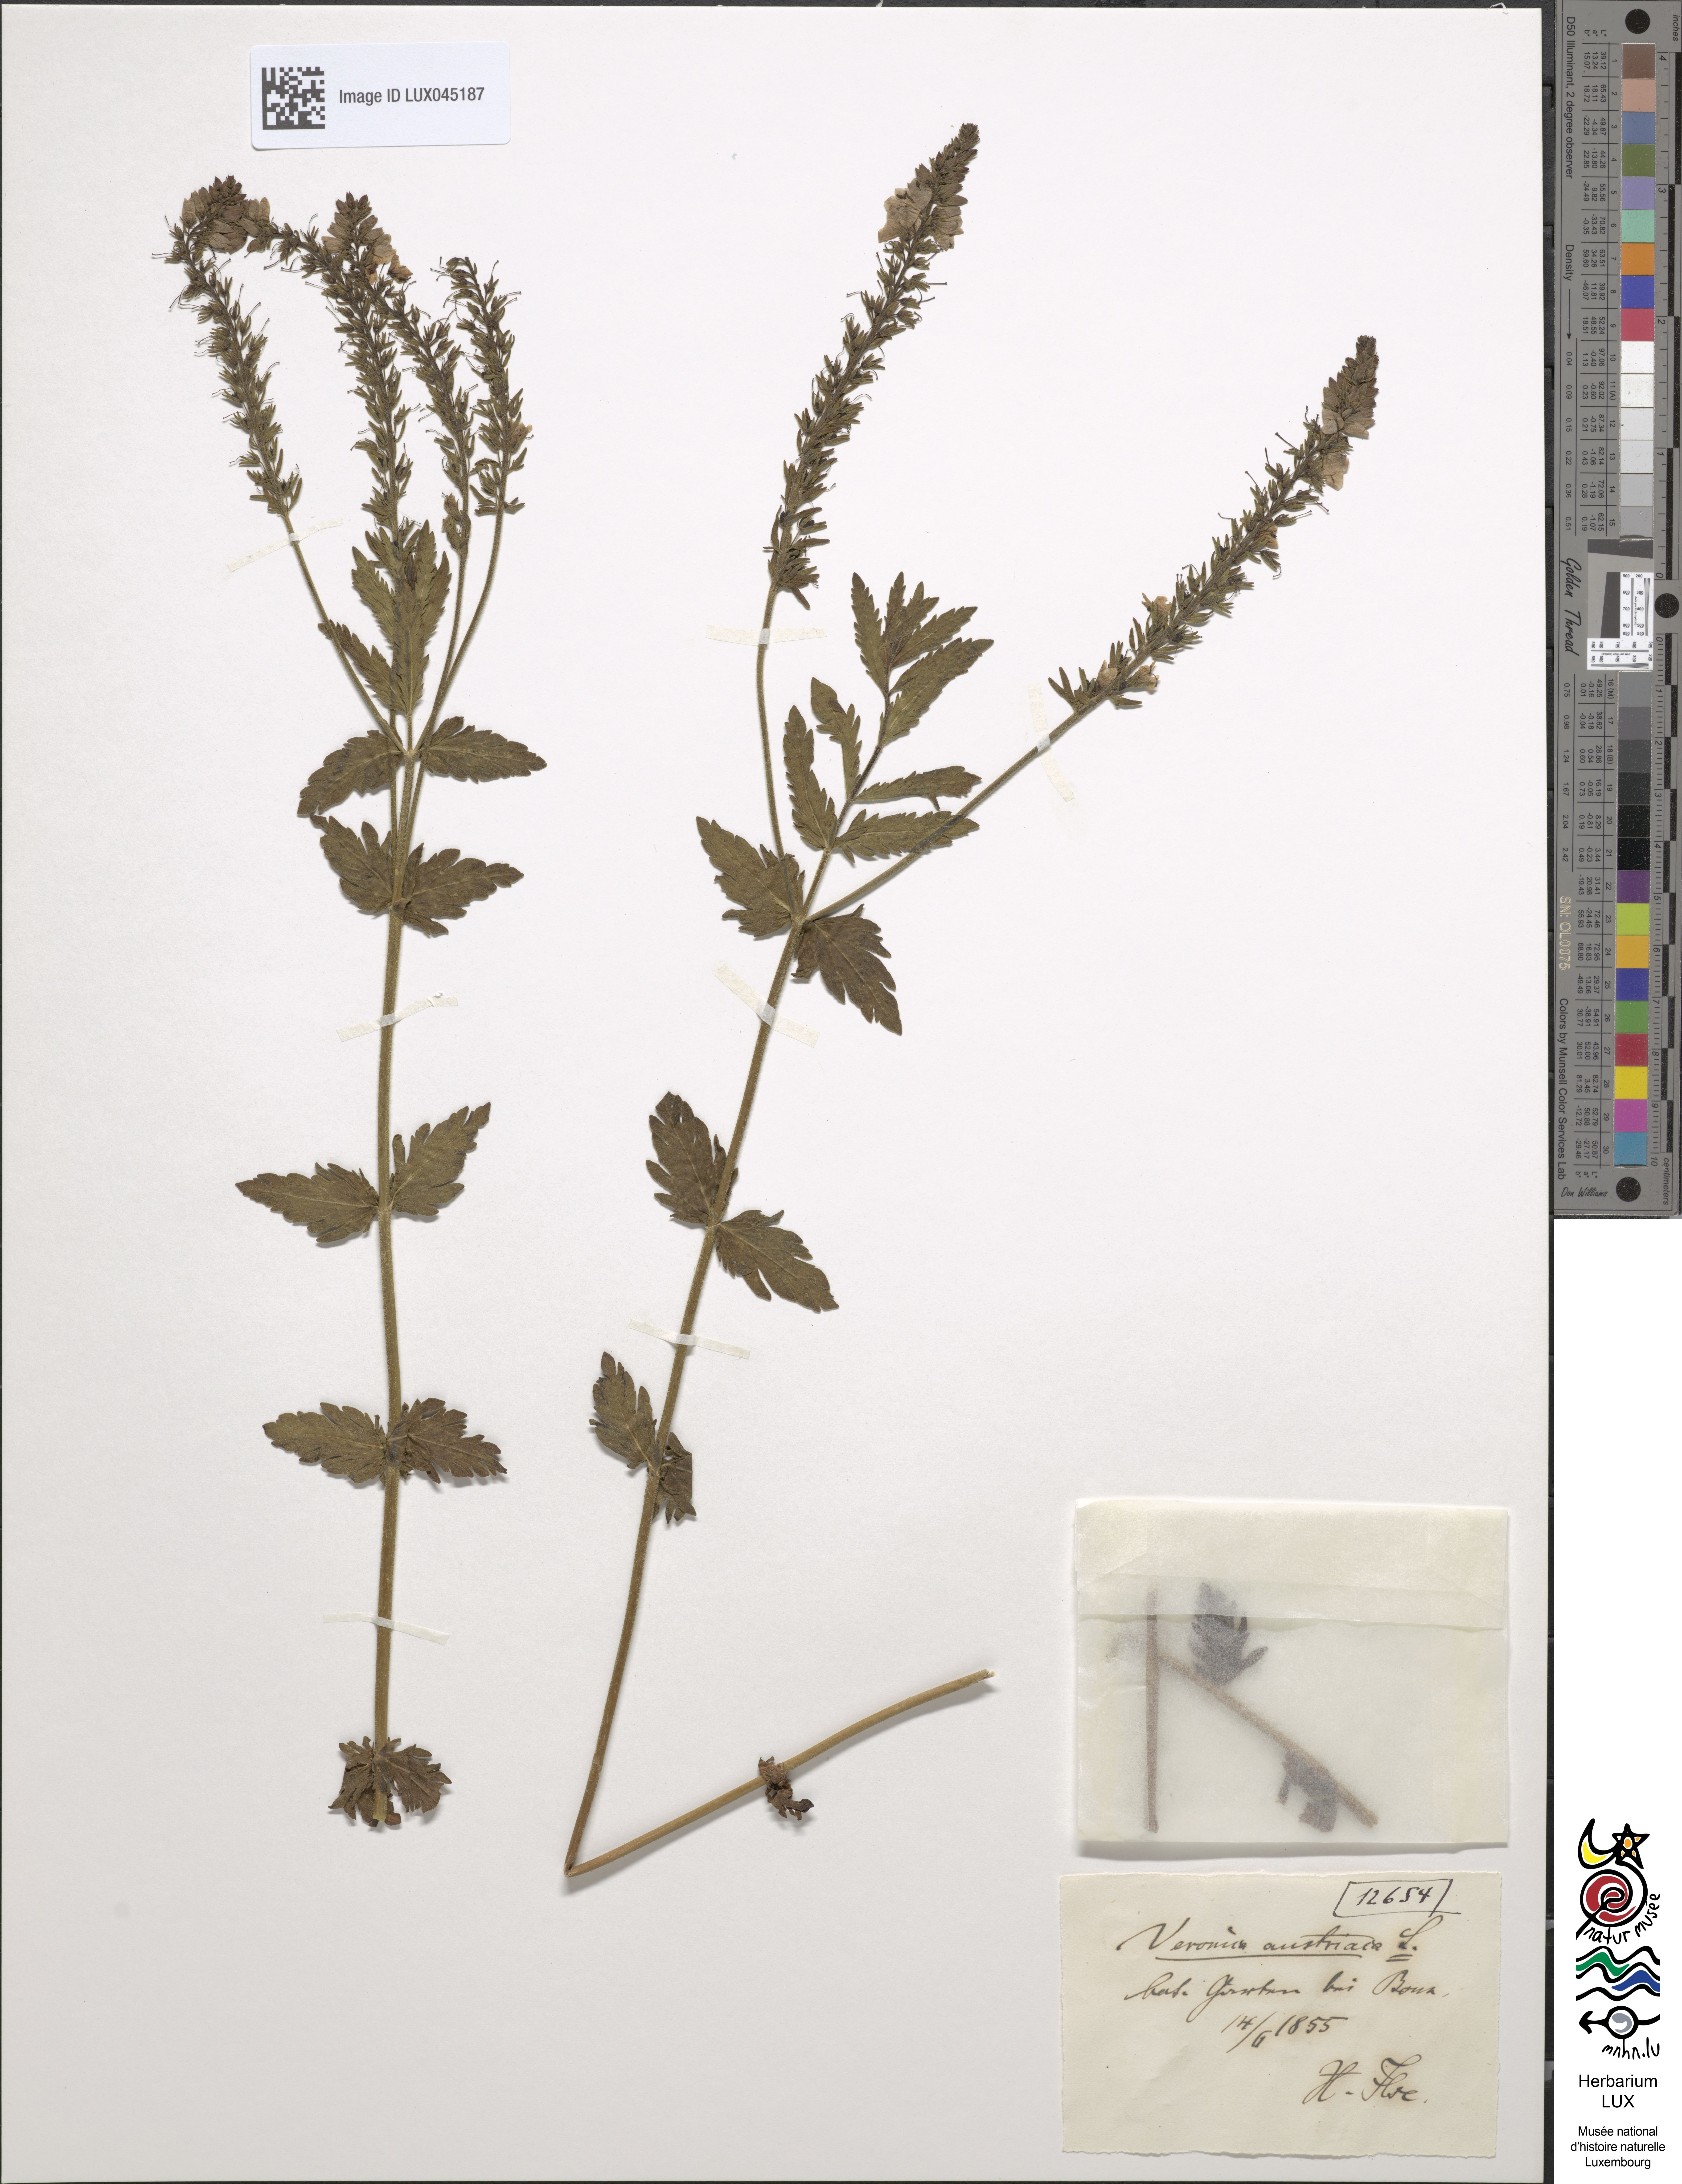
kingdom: Plantae
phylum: Tracheophyta
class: Magnoliopsida
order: Lamiales
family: Plantaginaceae
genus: Veronica
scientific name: Veronica austriaca
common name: Large speedwell
